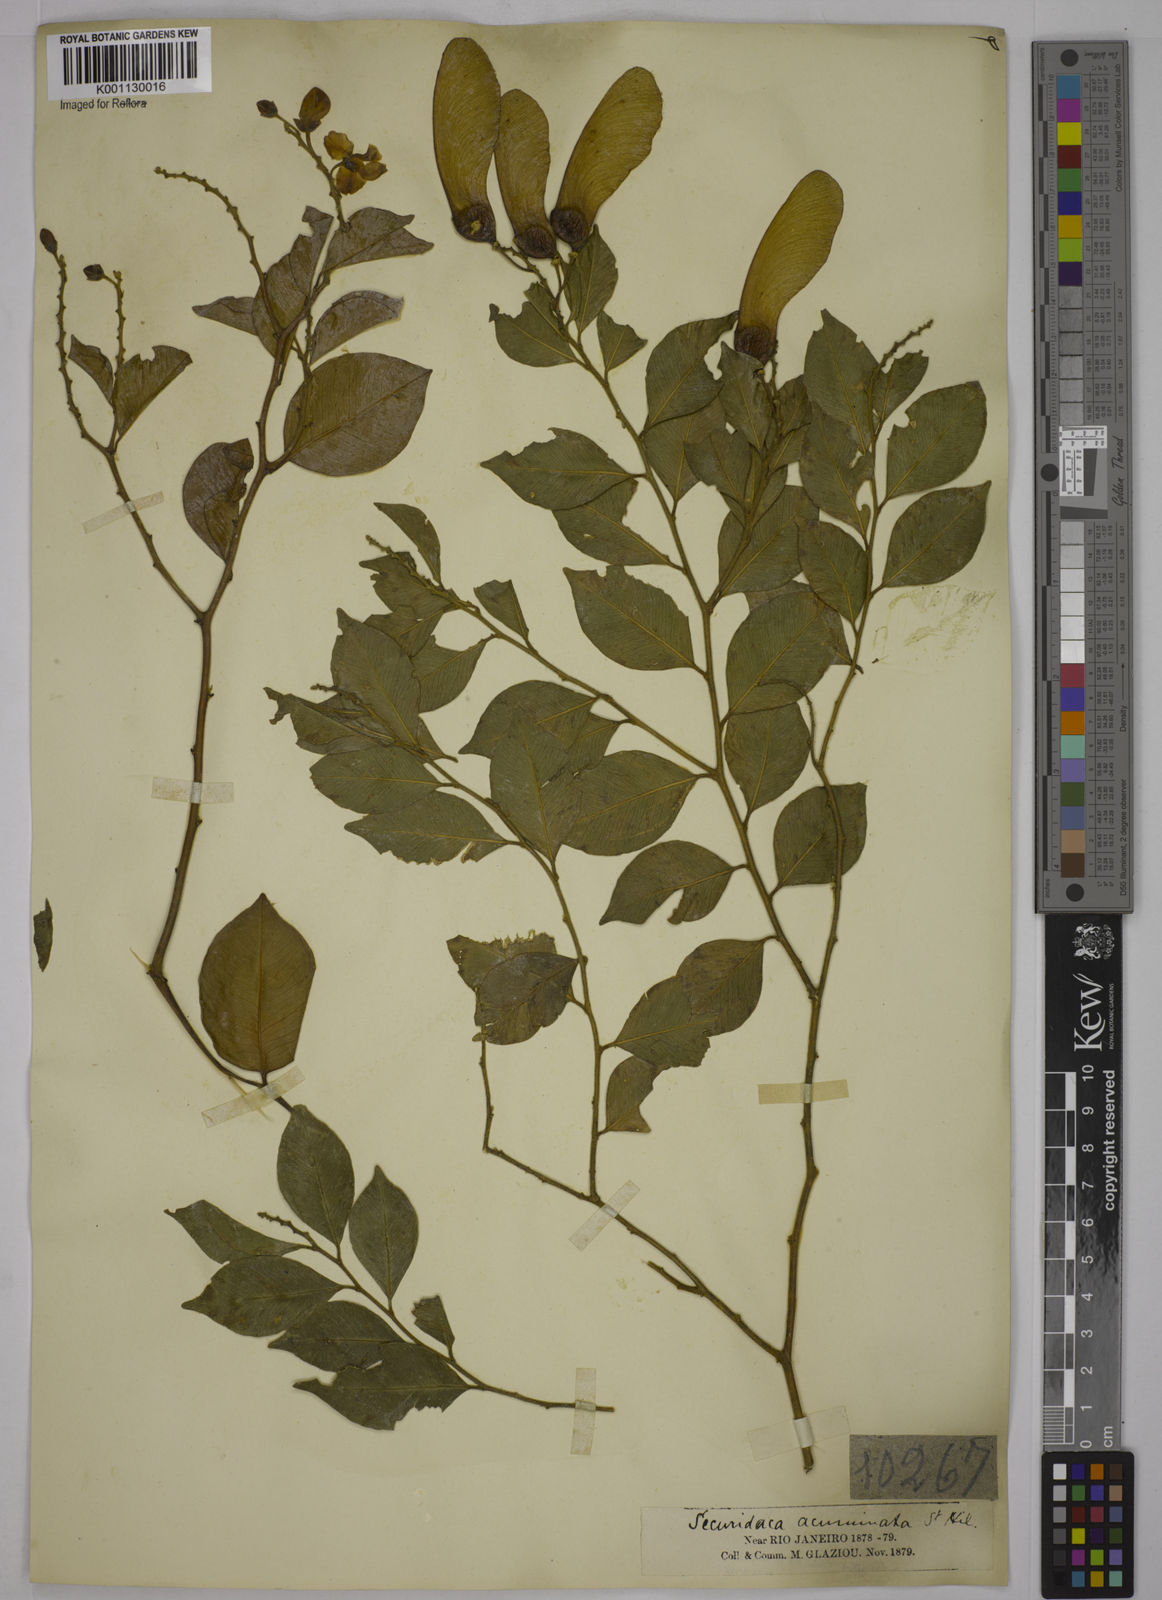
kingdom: Plantae
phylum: Tracheophyta
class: Magnoliopsida
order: Fabales
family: Polygalaceae
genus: Securidaca
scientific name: Securidaca acuminata
